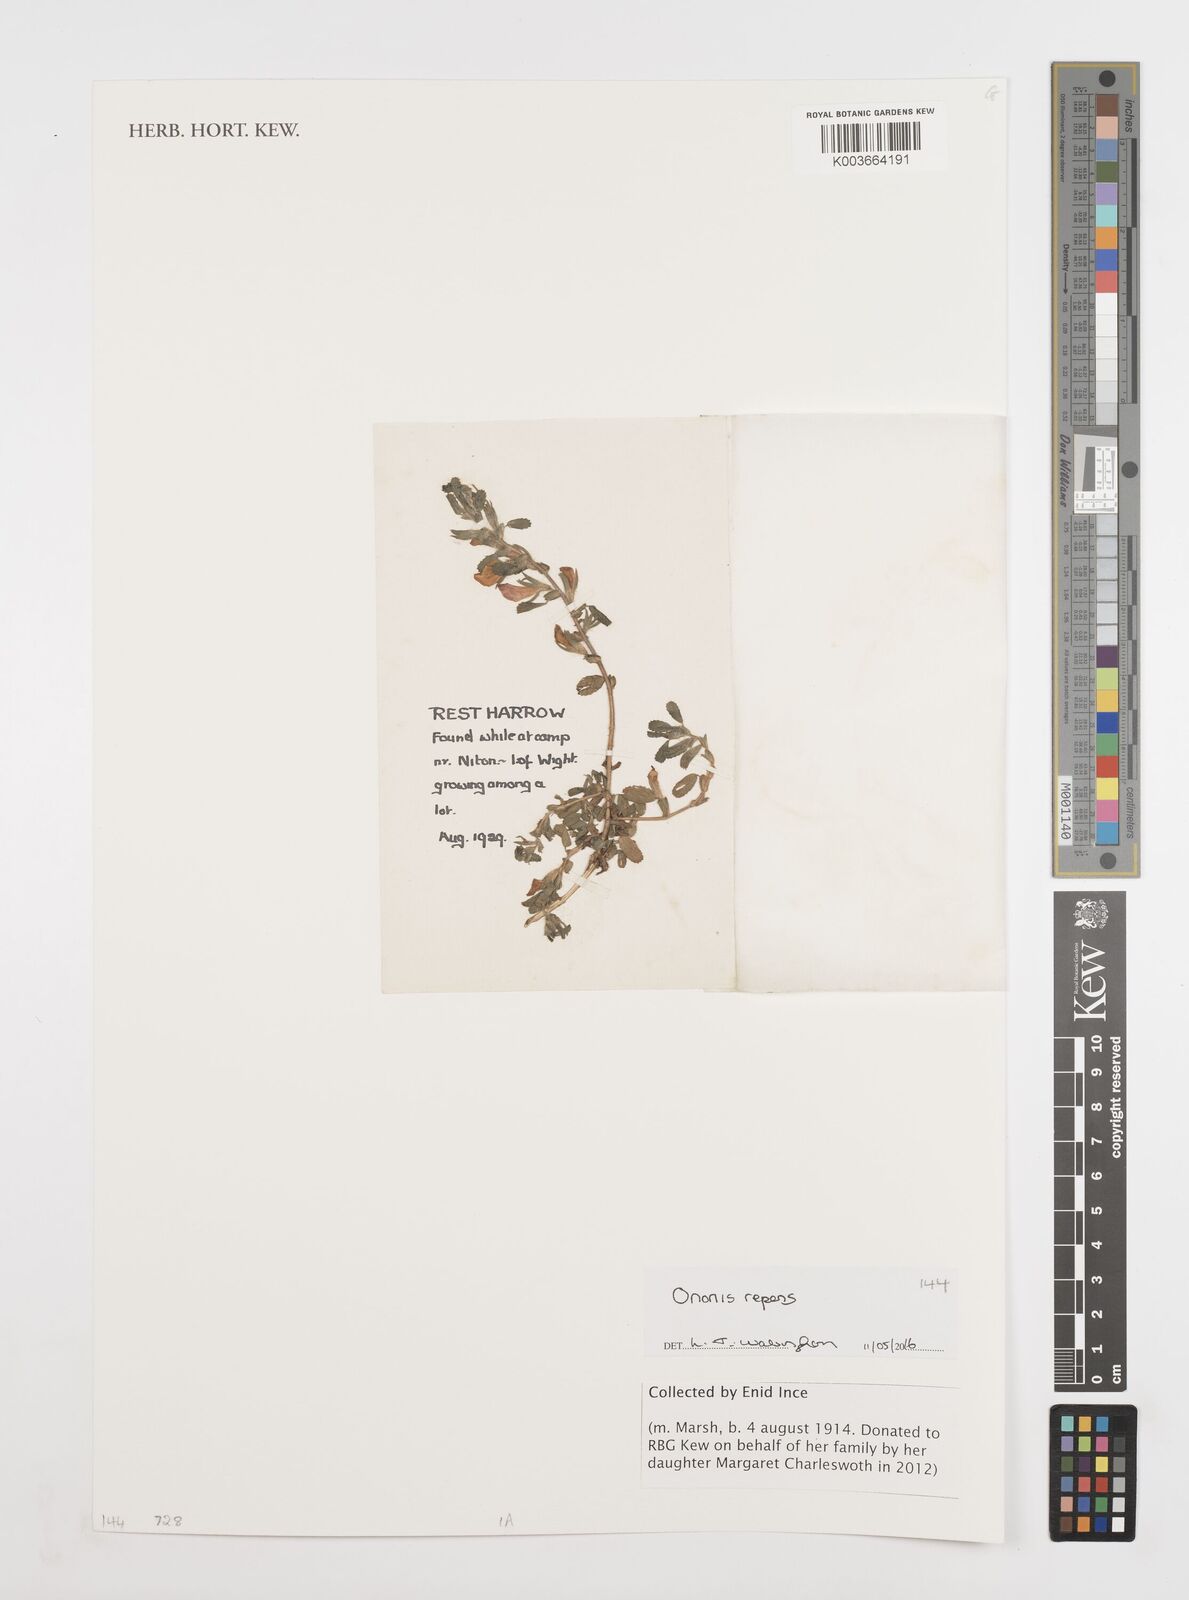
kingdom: Plantae
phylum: Tracheophyta
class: Magnoliopsida
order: Fabales
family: Fabaceae
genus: Ononis
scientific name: Ononis spinosa
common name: Spiny restharrow
